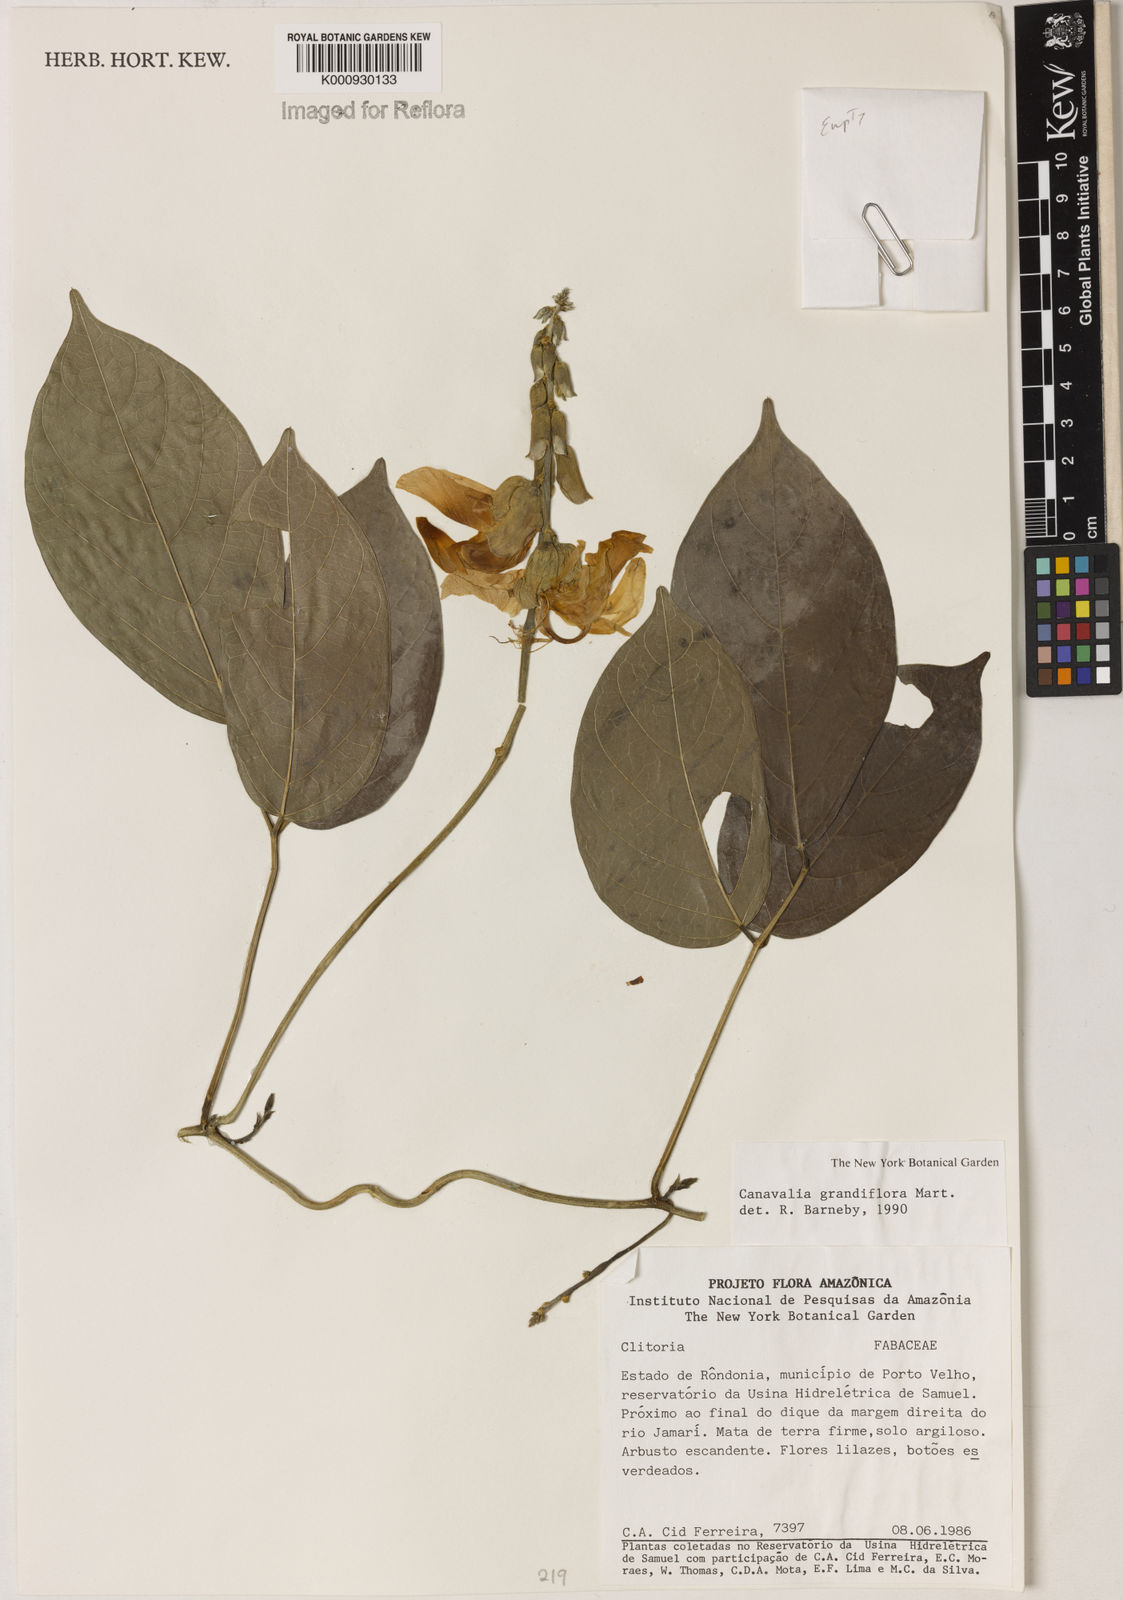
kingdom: Plantae
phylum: Tracheophyta
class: Magnoliopsida
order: Fabales
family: Fabaceae
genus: Canavalia
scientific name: Canavalia grandiflora
